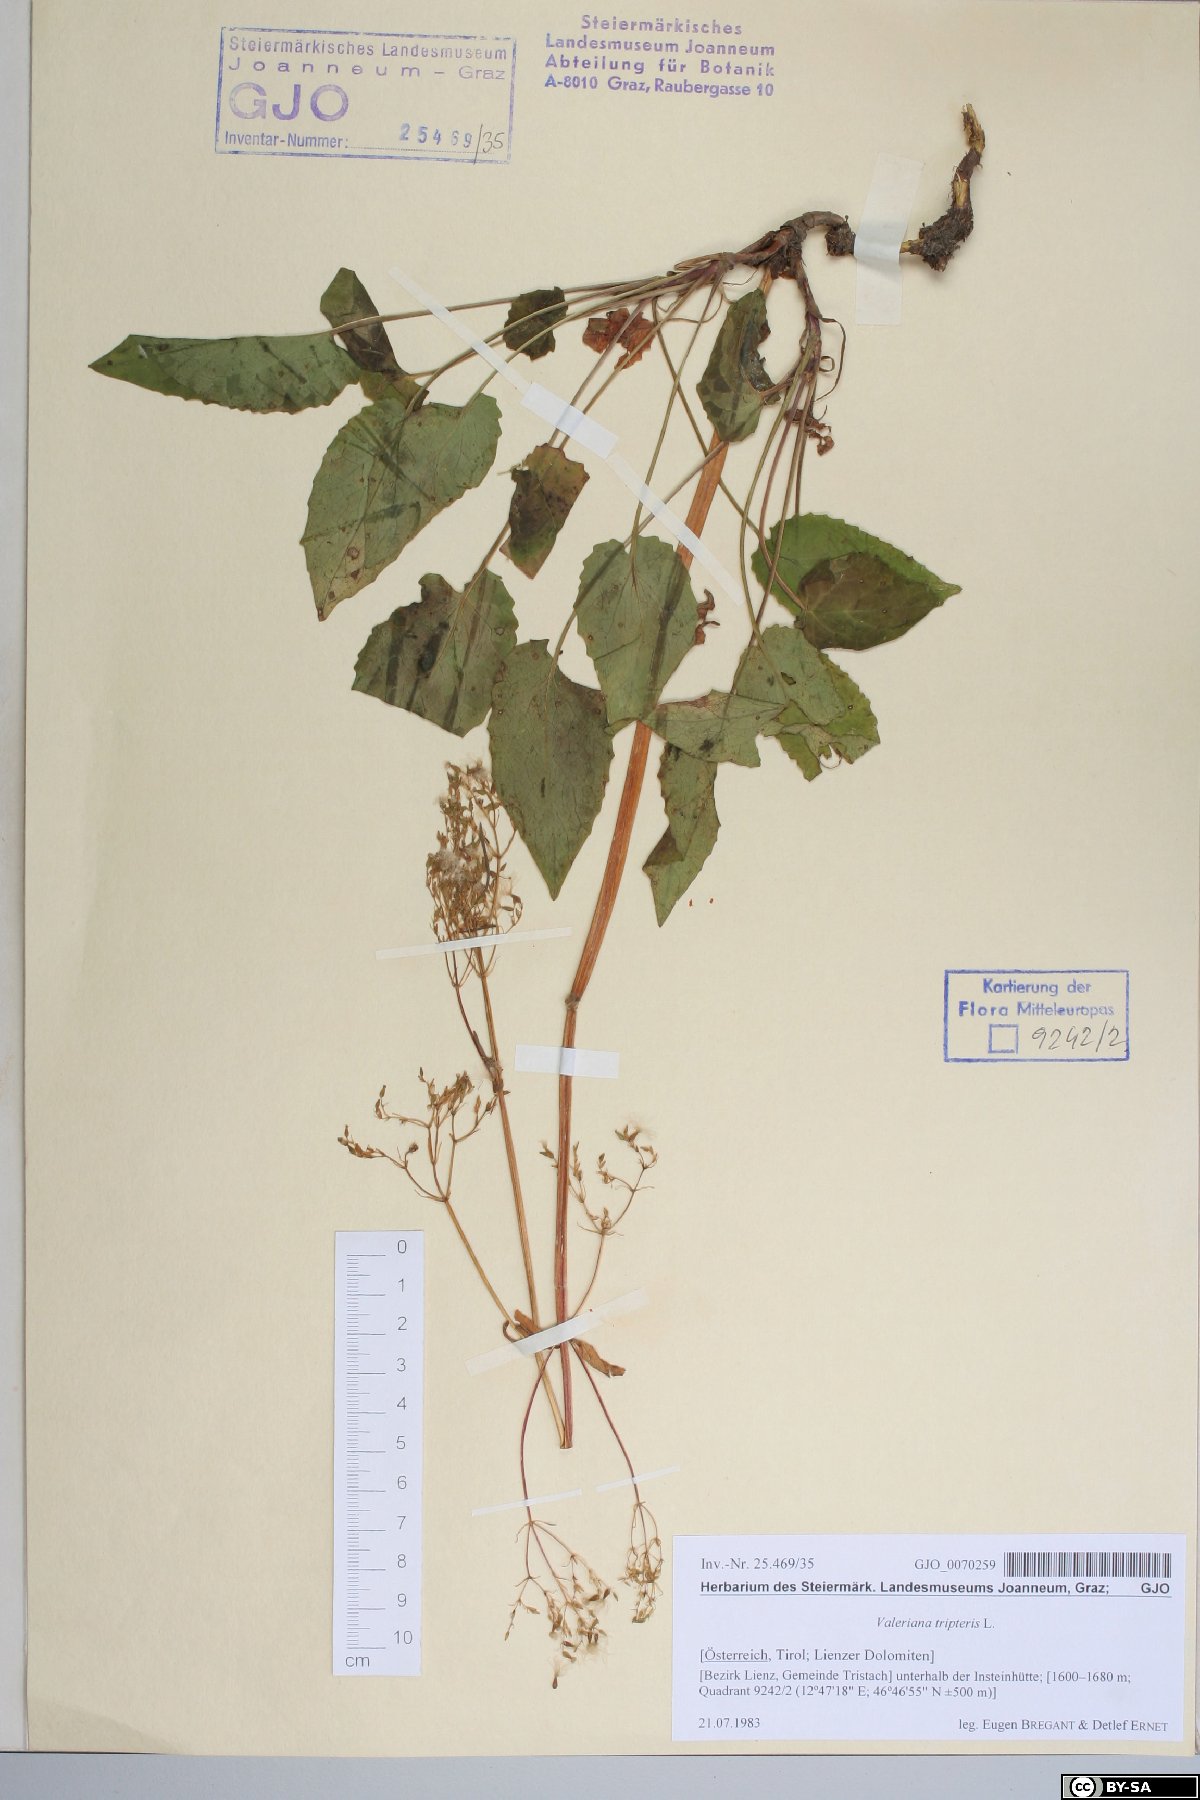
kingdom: Plantae
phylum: Tracheophyta
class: Magnoliopsida
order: Dipsacales
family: Caprifoliaceae
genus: Valeriana
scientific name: Valeriana tripteris
